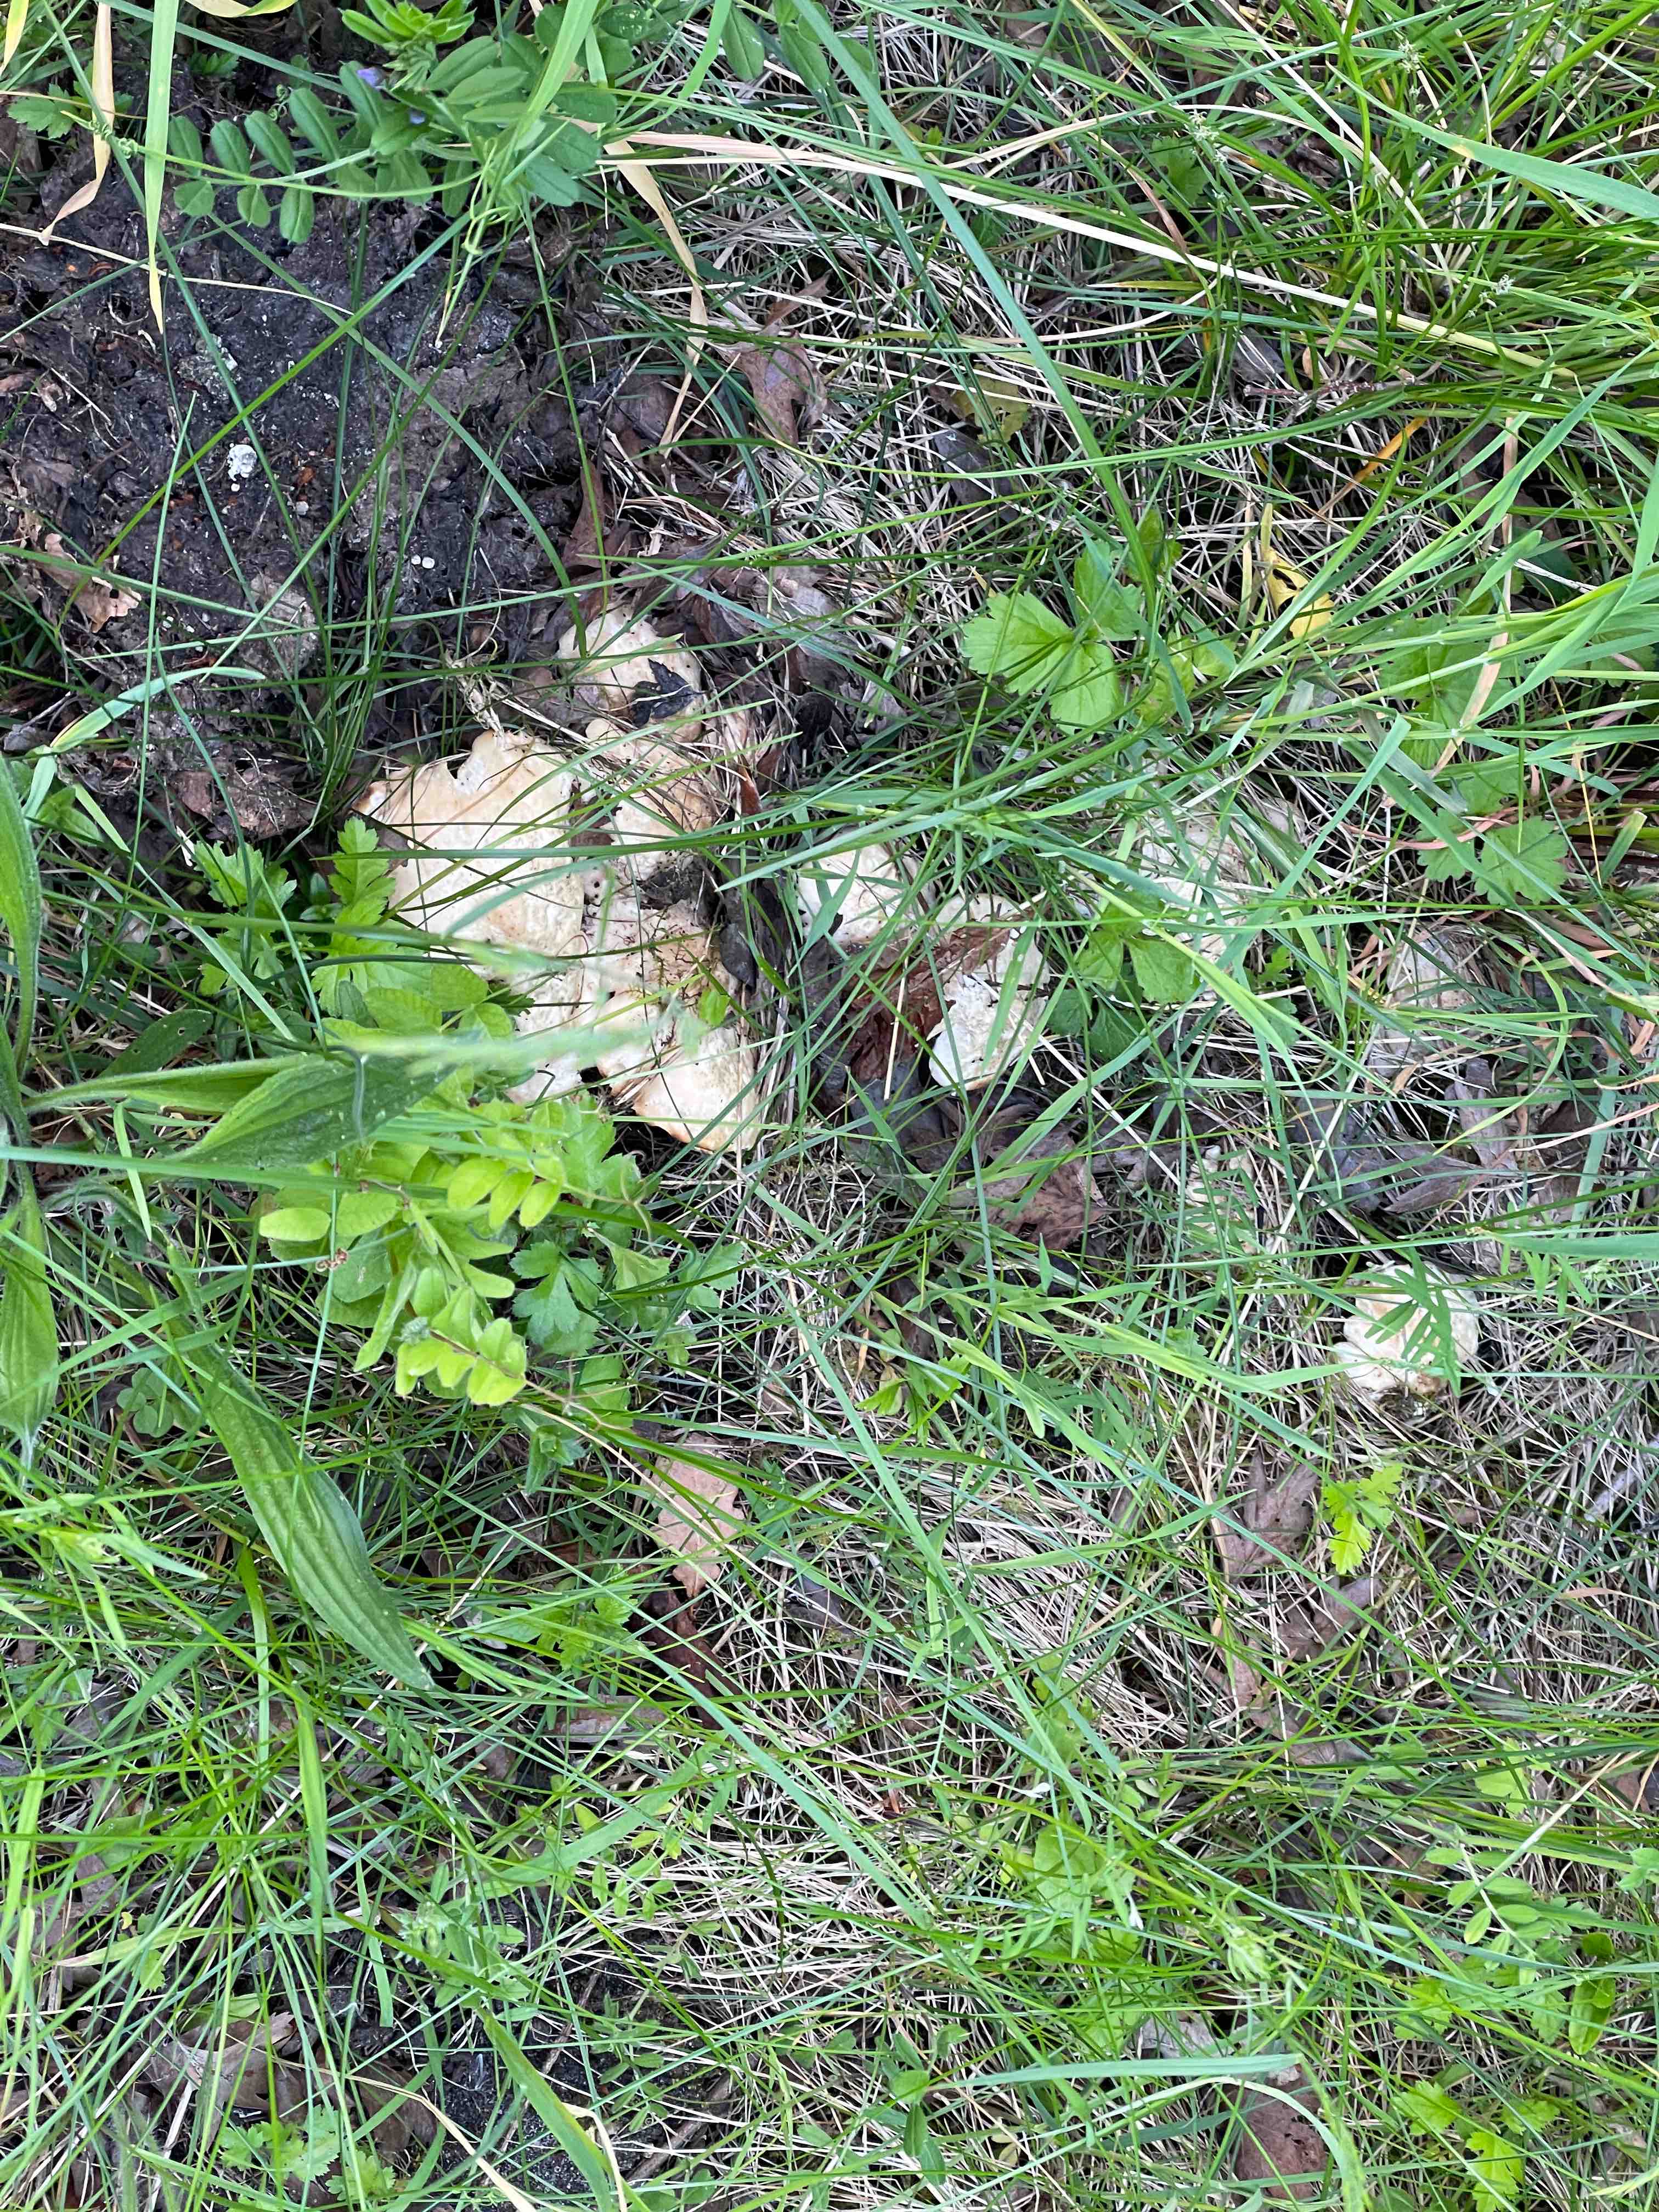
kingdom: Fungi
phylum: Basidiomycota
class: Agaricomycetes
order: Agaricales
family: Lyophyllaceae
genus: Calocybe
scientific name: Calocybe gambosa
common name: vårmusseron
